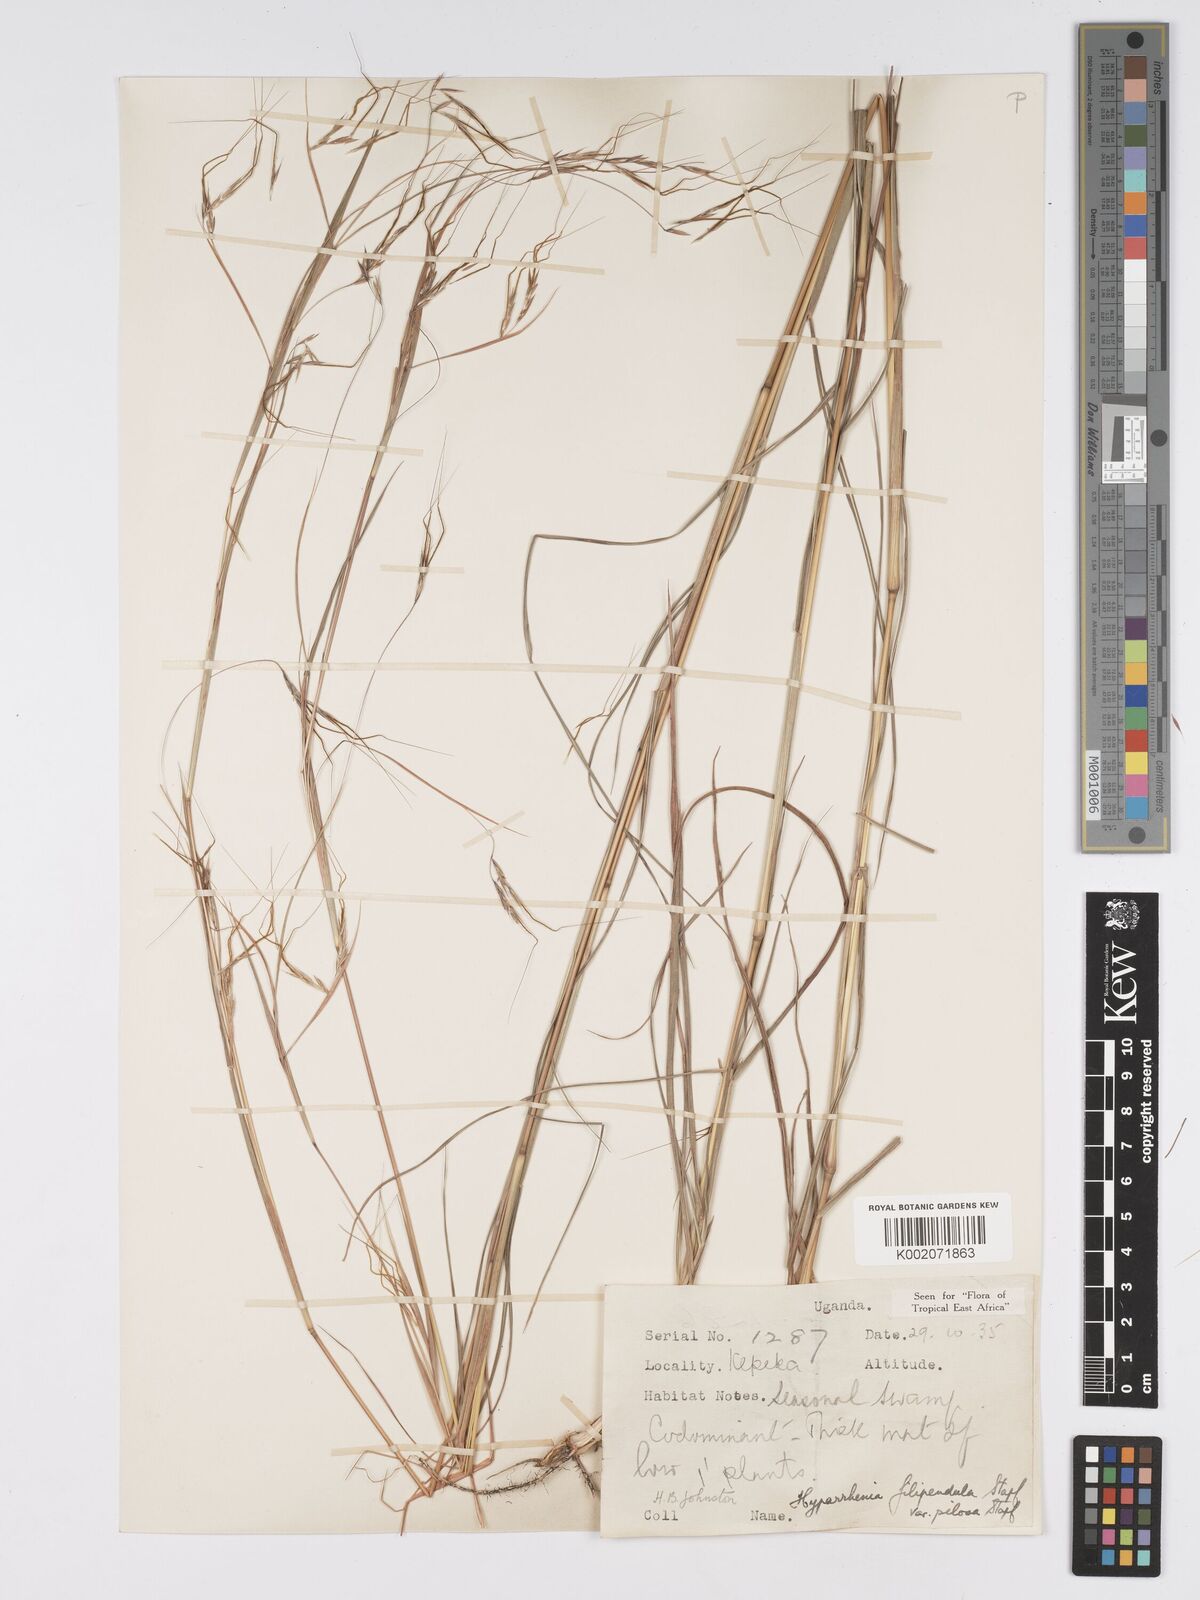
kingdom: Plantae
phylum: Tracheophyta
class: Liliopsida
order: Poales
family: Poaceae
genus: Hyparrhenia
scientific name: Hyparrhenia filipendula
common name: Tambookie grass
